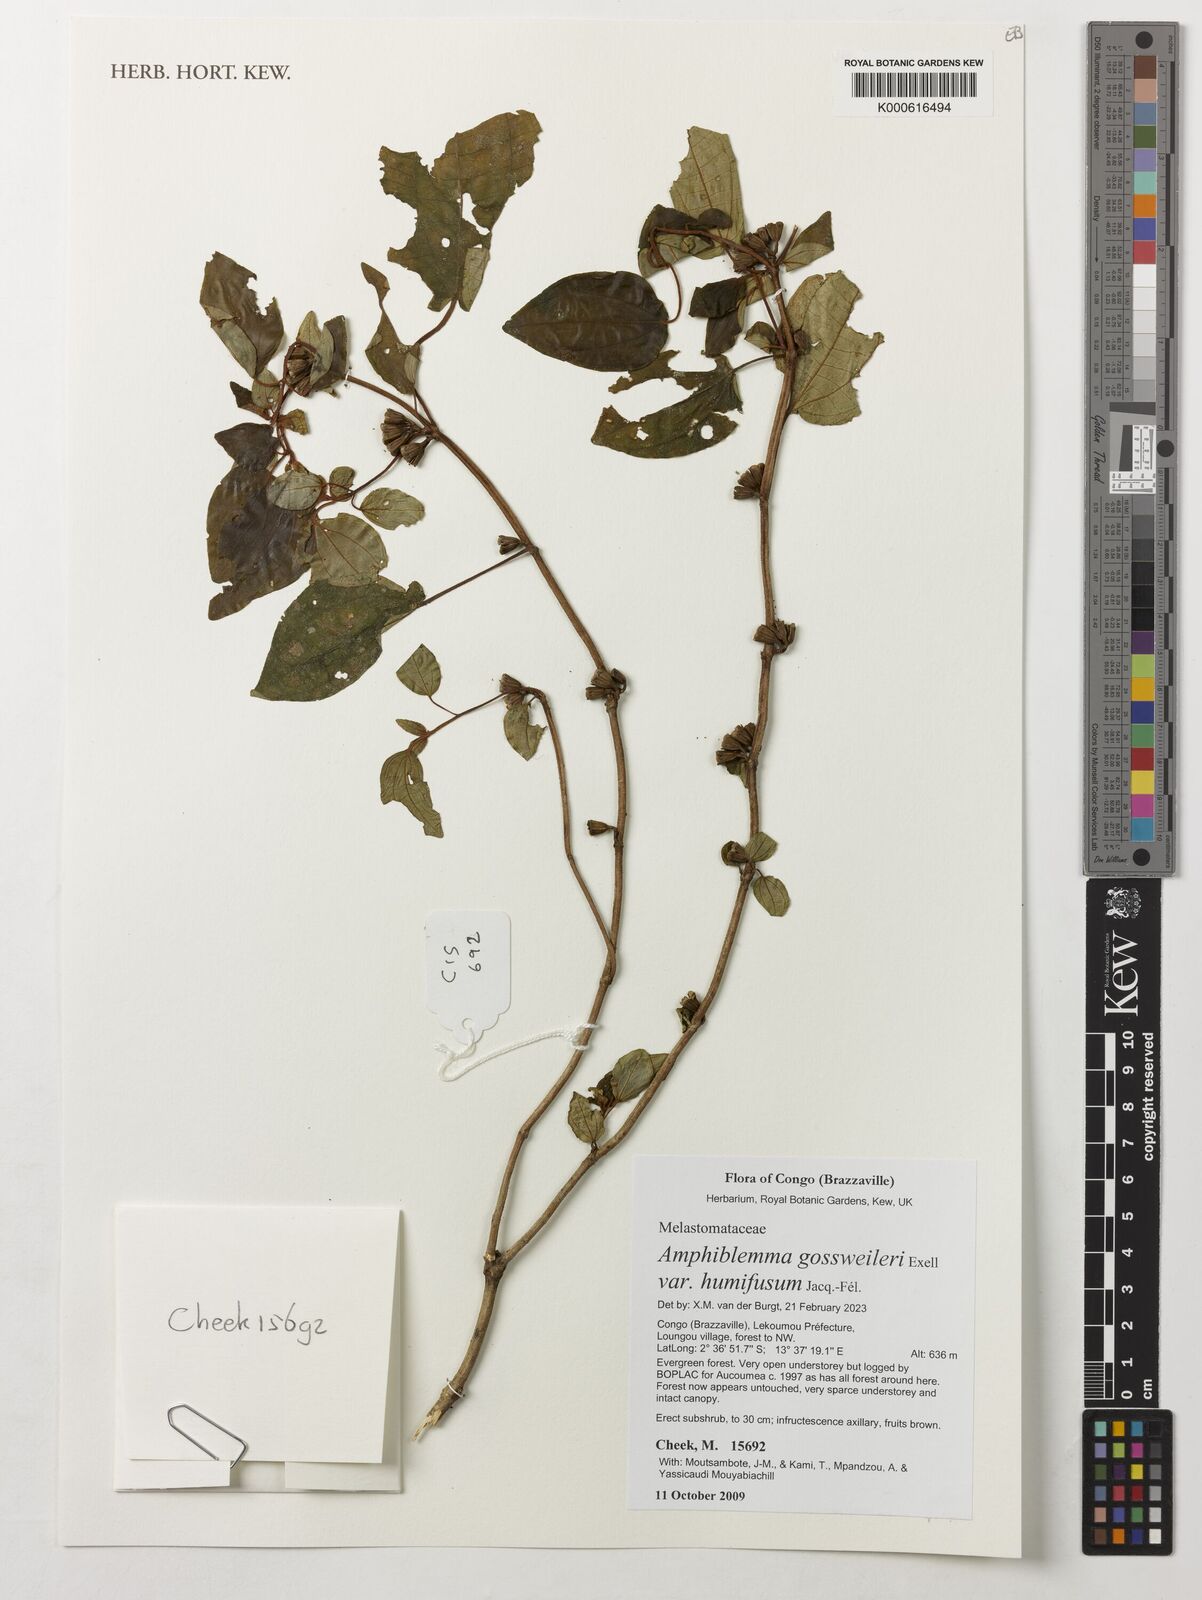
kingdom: Plantae
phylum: Tracheophyta
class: Magnoliopsida
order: Myrtales
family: Melastomataceae
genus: Amphiblemma
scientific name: Amphiblemma gossweileri
